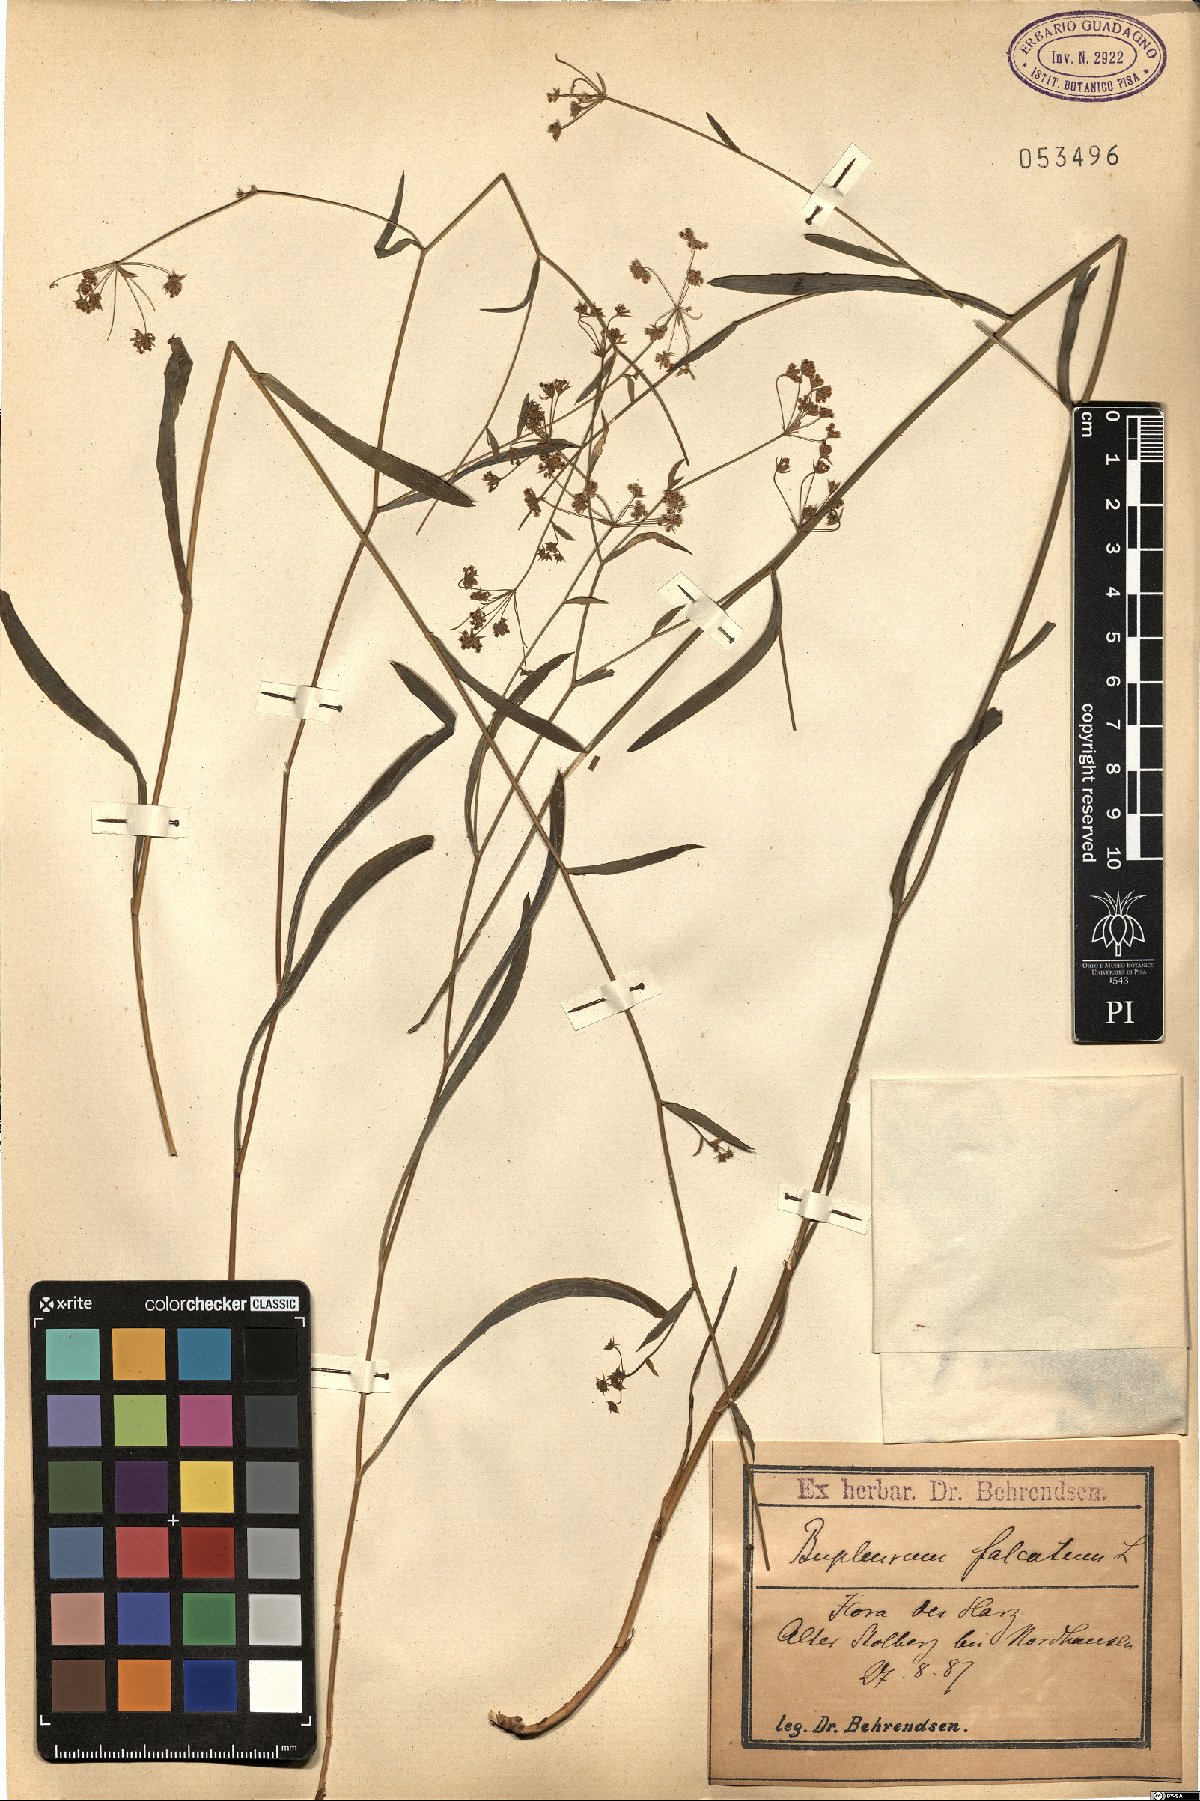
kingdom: Plantae
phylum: Tracheophyta
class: Magnoliopsida
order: Apiales
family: Apiaceae
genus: Bupleurum
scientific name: Bupleurum falcatum
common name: Sickle-leaved hare's-ear
